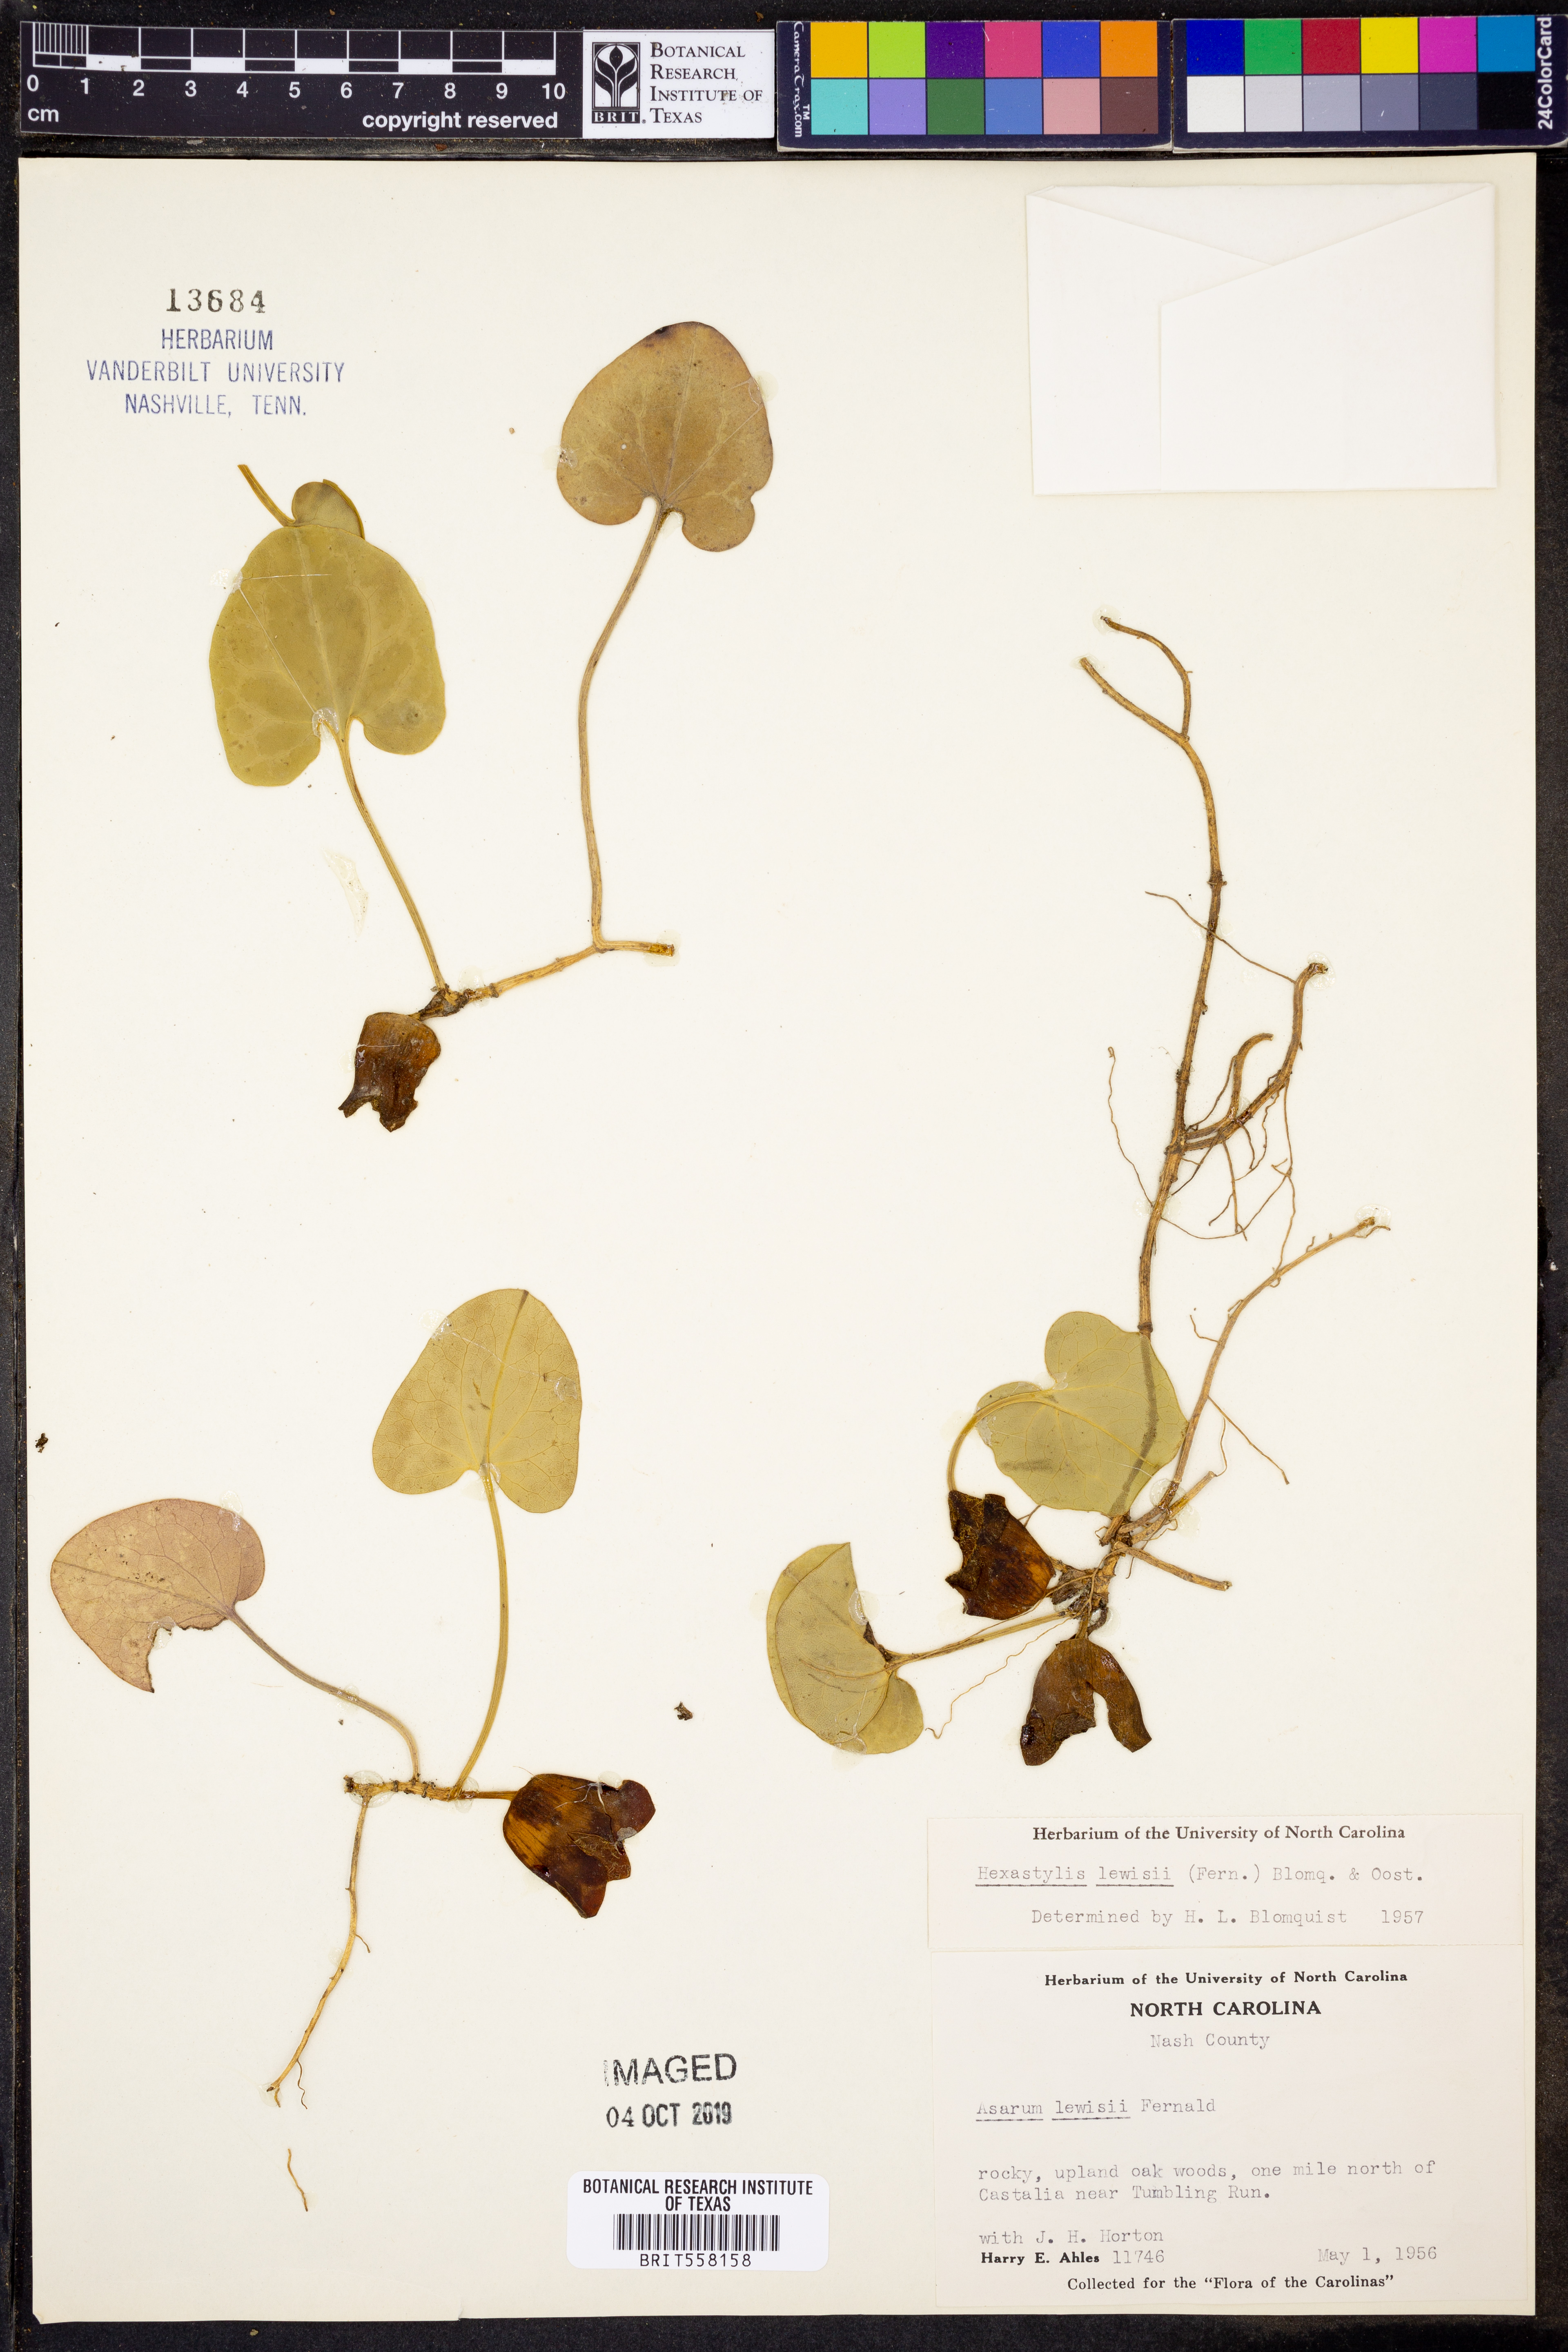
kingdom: Plantae
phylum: Tracheophyta
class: Magnoliopsida
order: Piperales
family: Aristolochiaceae
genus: Hexastylis
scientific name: Hexastylis lewisii
